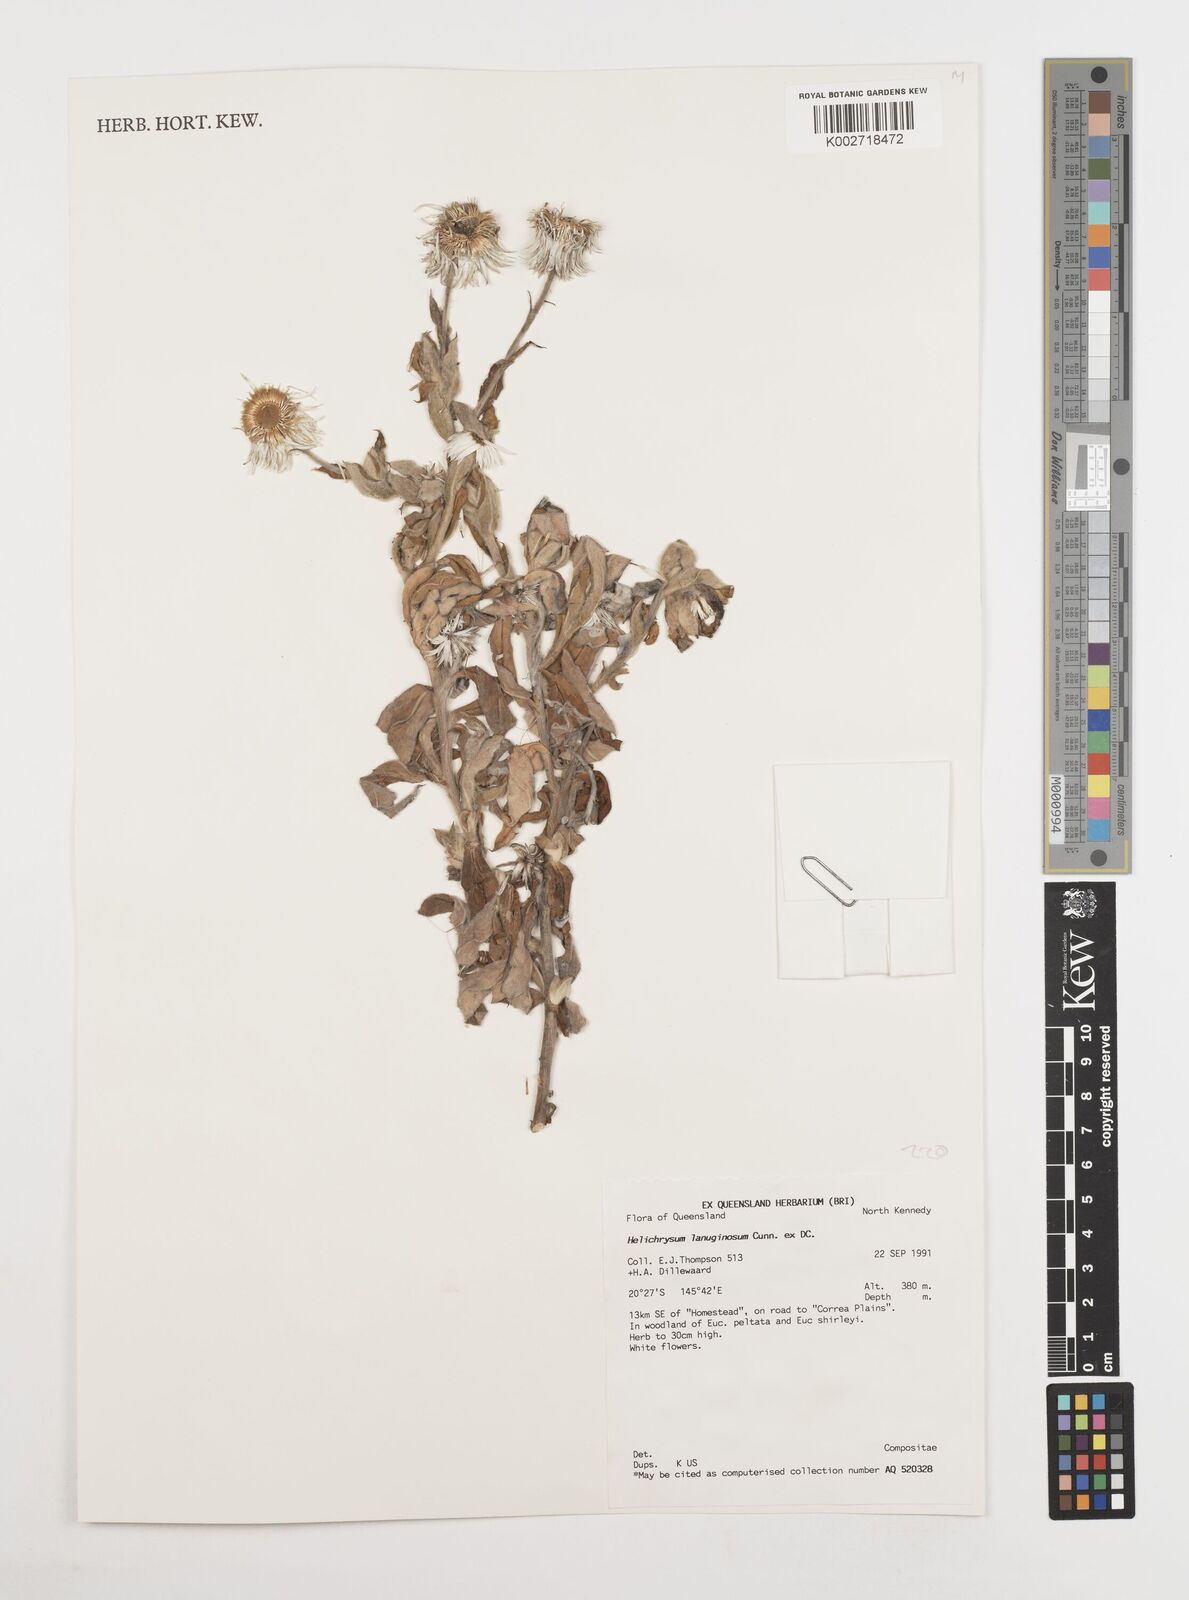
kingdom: Plantae
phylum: Tracheophyta
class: Magnoliopsida
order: Asterales
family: Asteraceae
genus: Coronidium
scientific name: Coronidium lanuginosum
